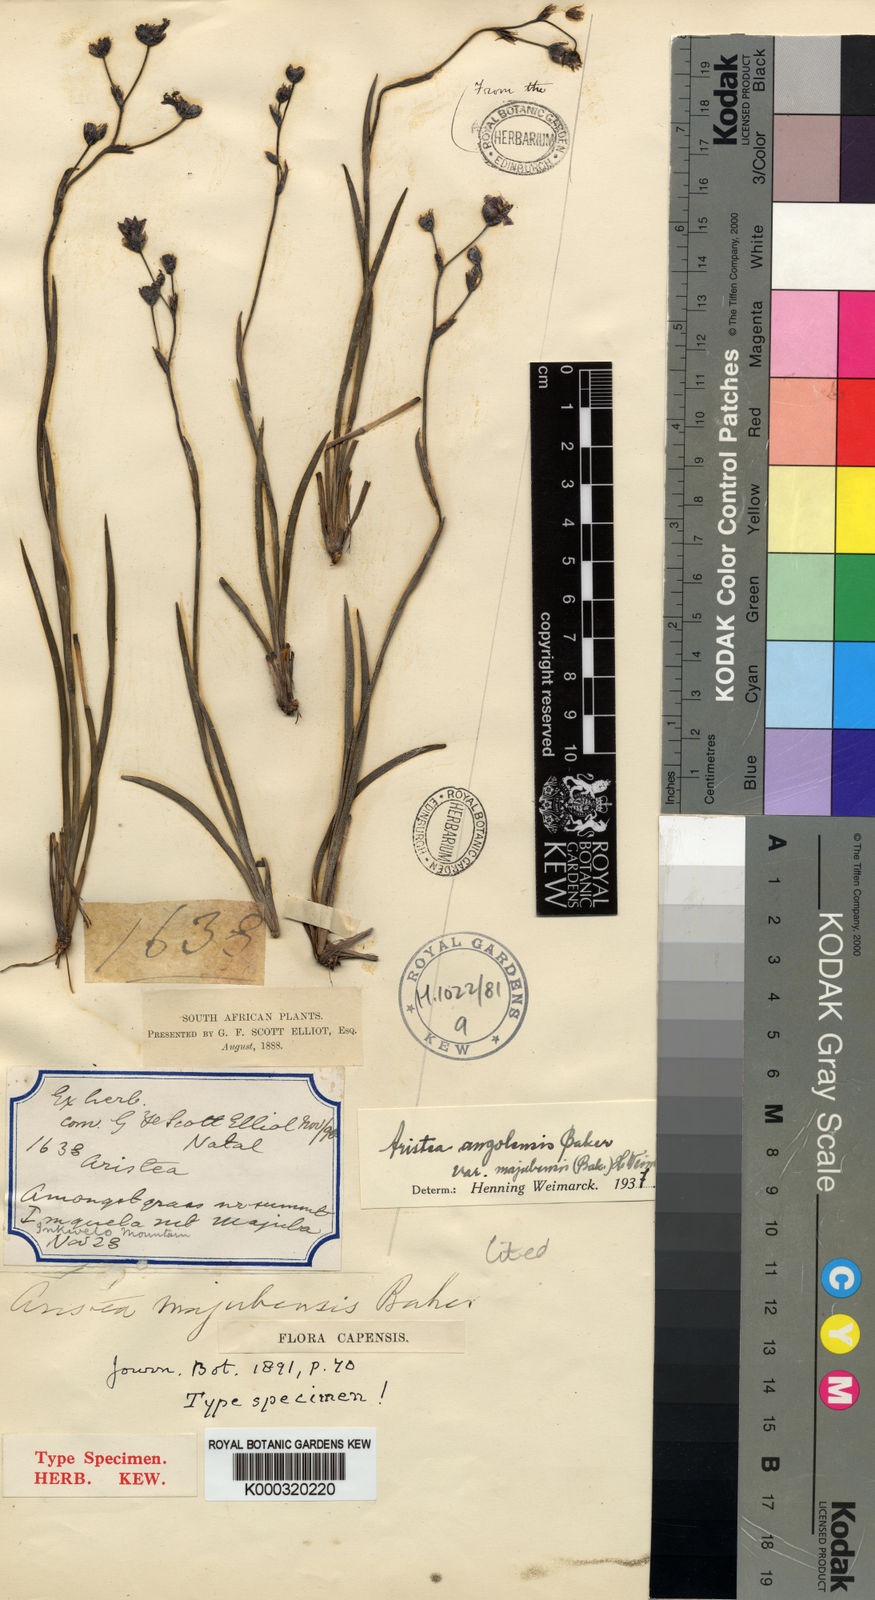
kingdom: Plantae
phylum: Tracheophyta
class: Liliopsida
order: Asparagales
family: Iridaceae
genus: Aristea
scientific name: Aristea majubensis
